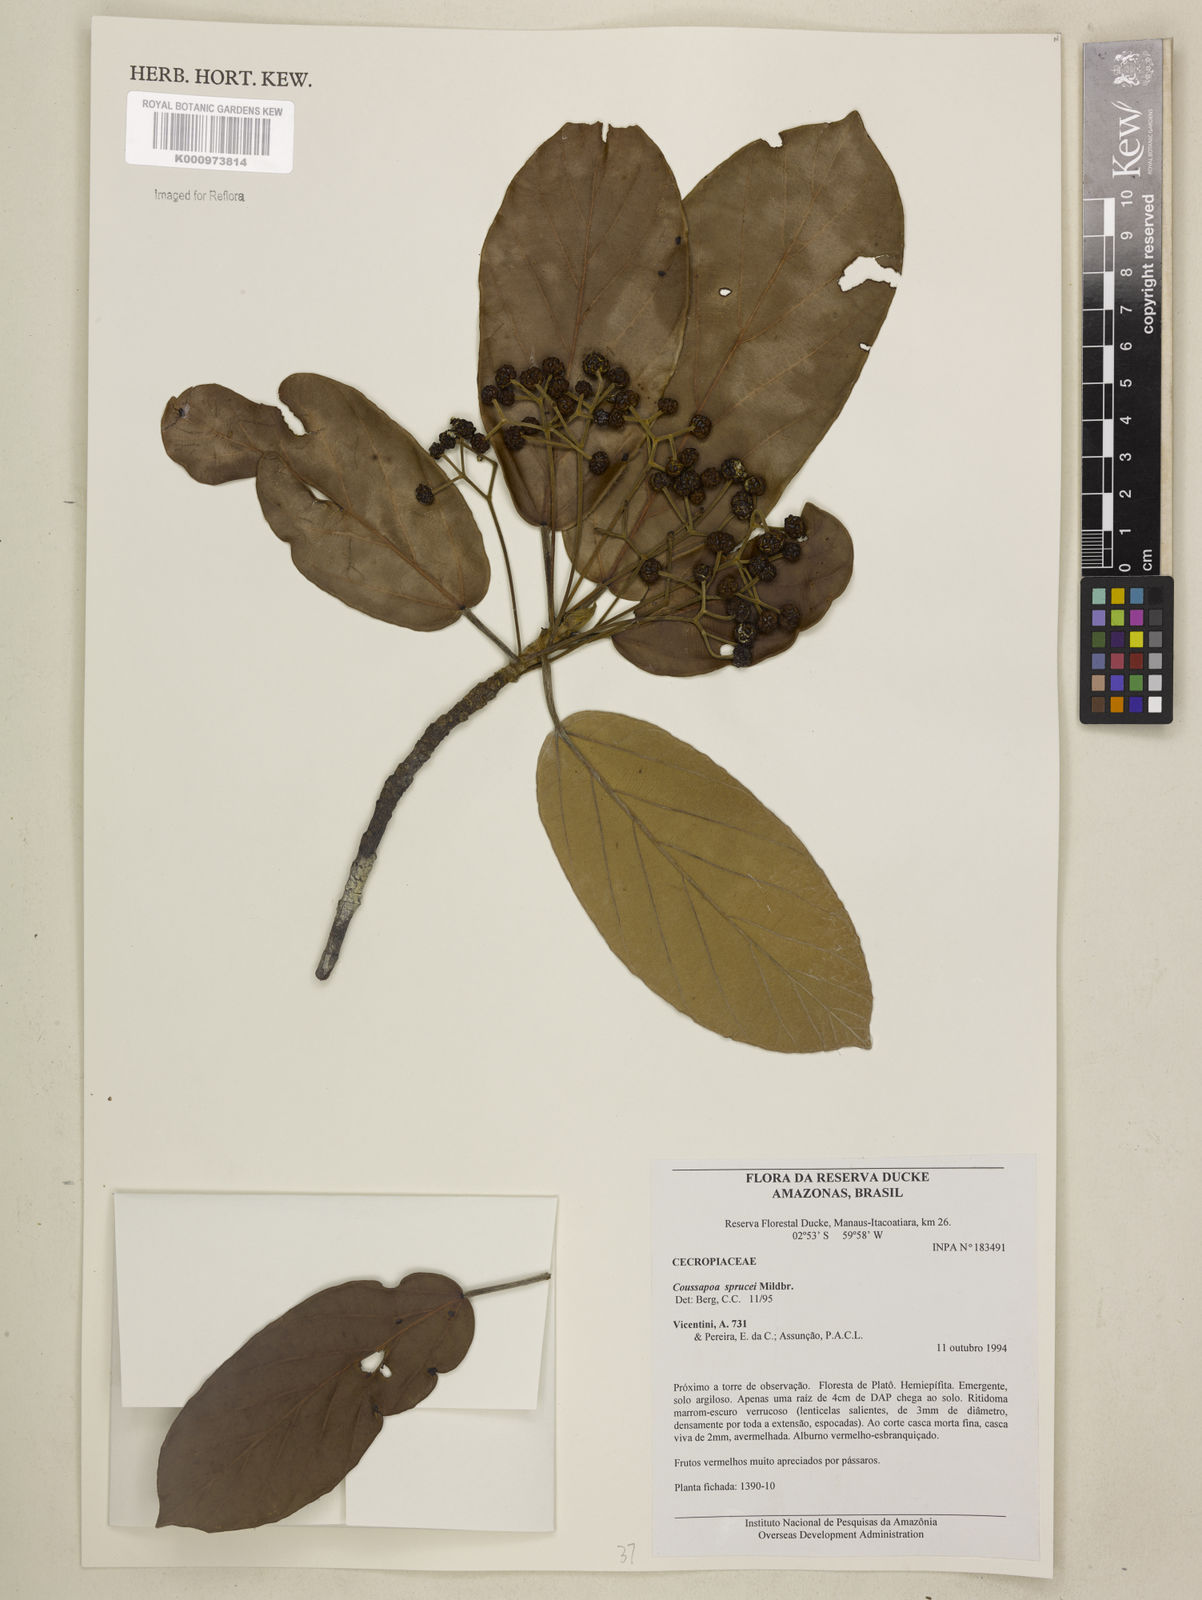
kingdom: Plantae
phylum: Tracheophyta
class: Magnoliopsida
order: Rosales
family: Urticaceae
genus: Coussapoa
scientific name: Coussapoa sprucei
